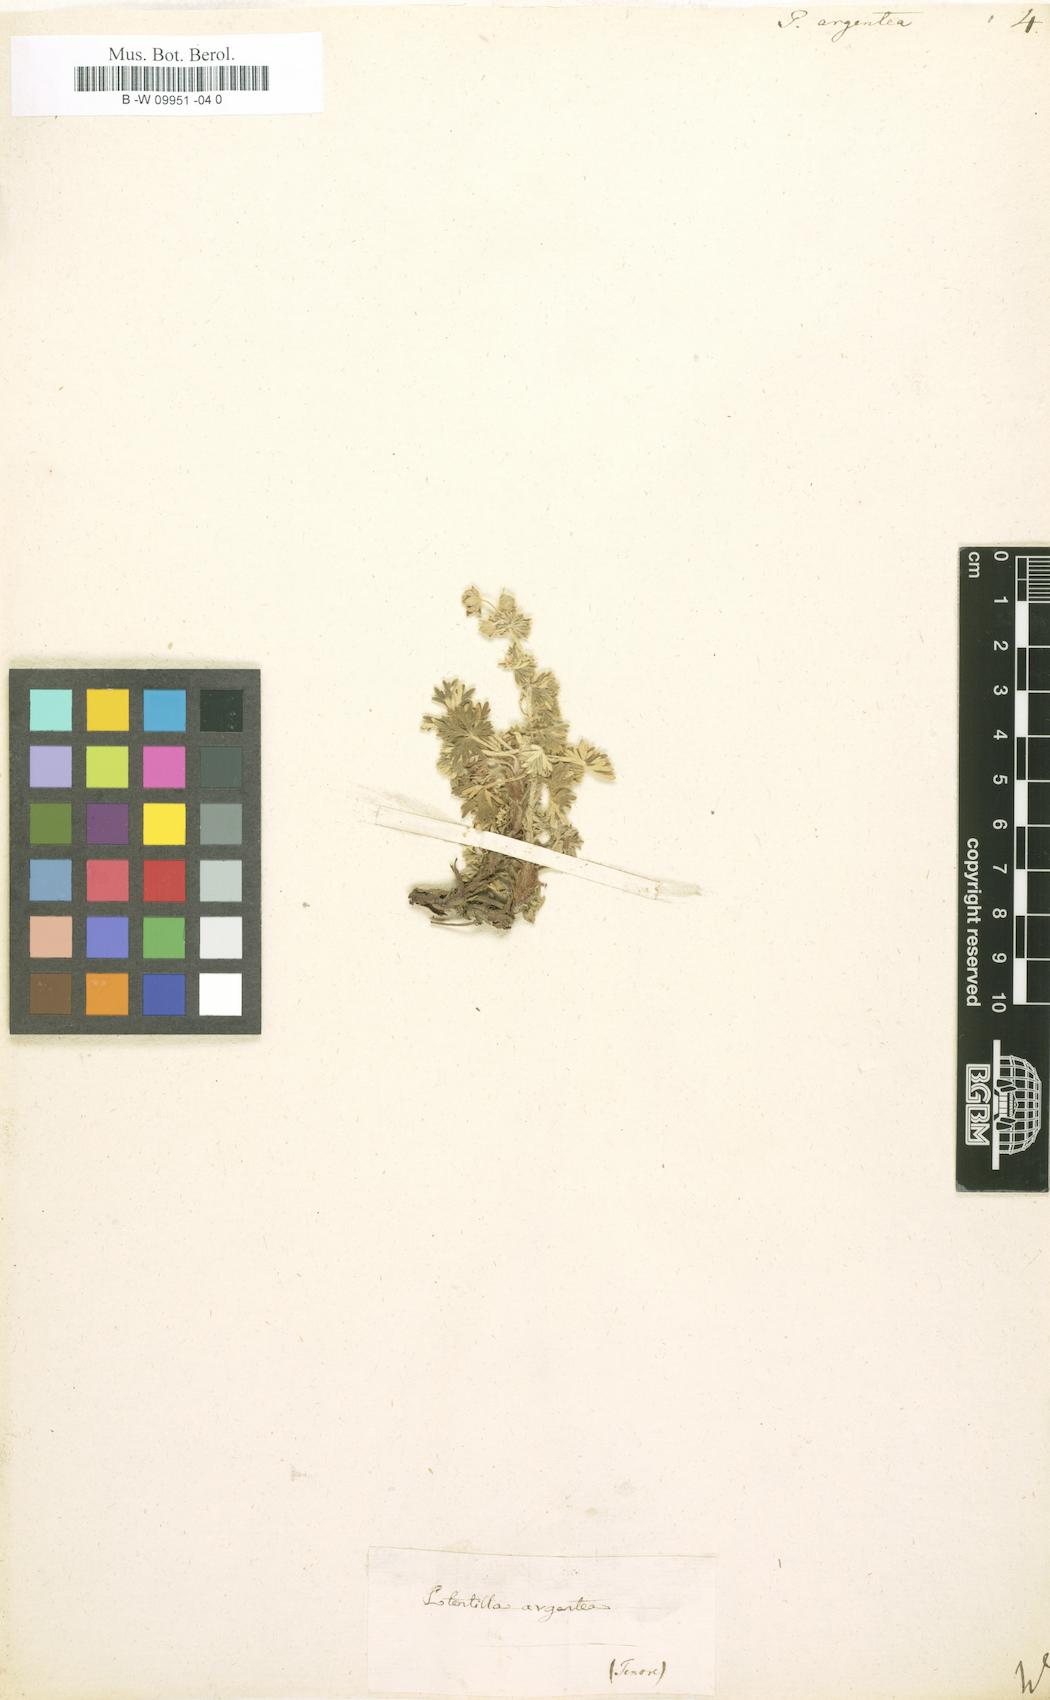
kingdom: Plantae
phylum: Tracheophyta
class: Magnoliopsida
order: Rosales
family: Rosaceae
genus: Potentilla
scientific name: Potentilla argentea
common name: Hoary cinquefoil
